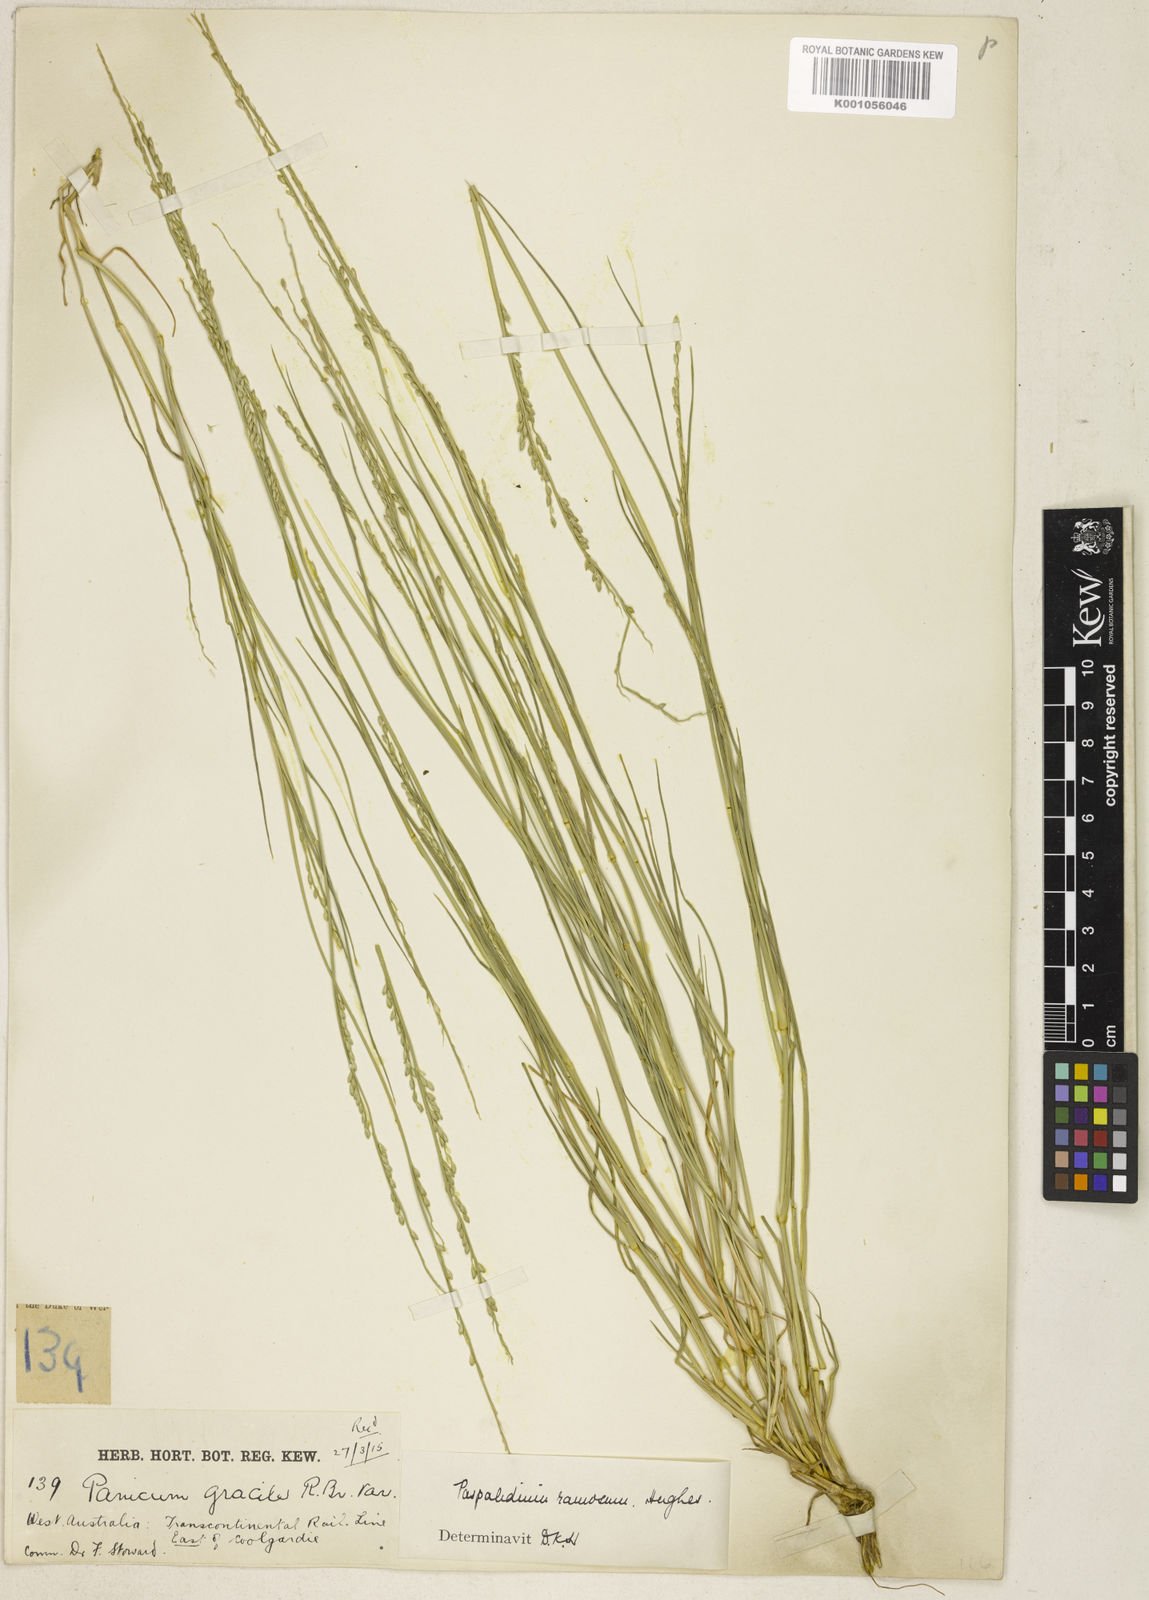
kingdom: Plantae
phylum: Tracheophyta
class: Liliopsida
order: Poales
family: Poaceae
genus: Setaria
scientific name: Setaria basiclada
